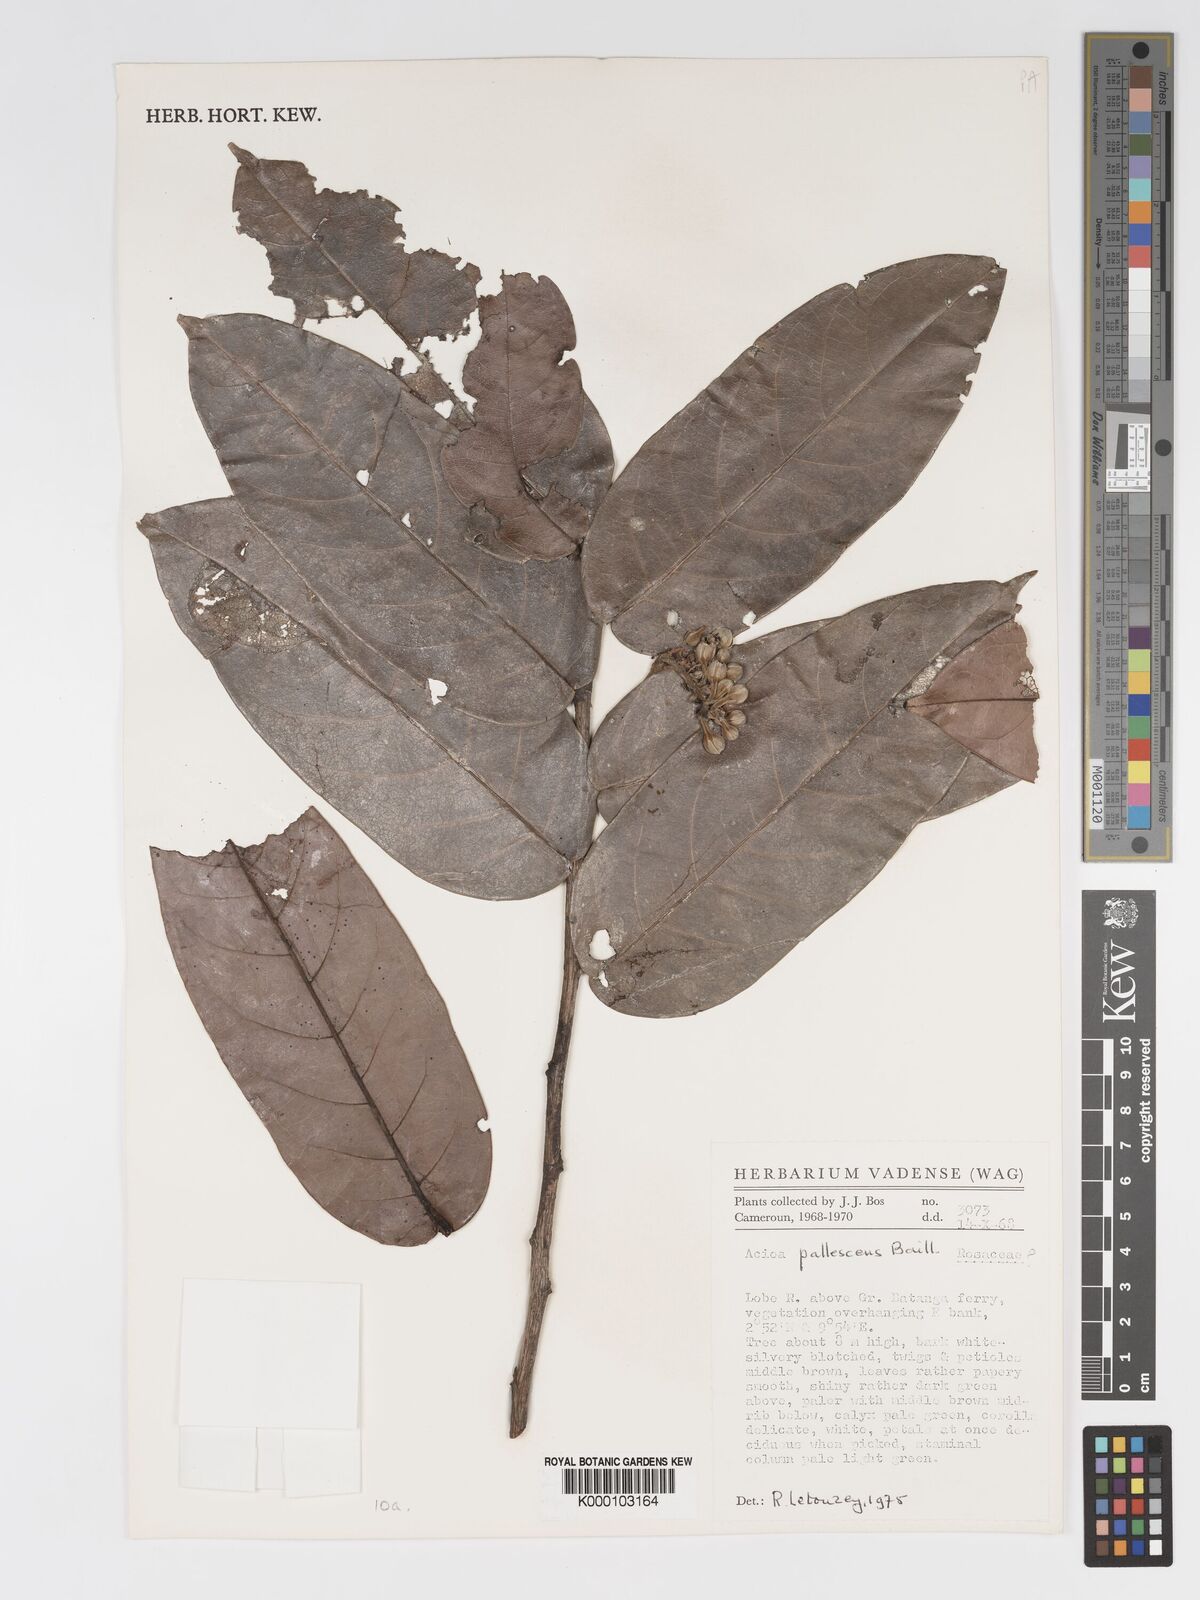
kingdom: Plantae
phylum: Tracheophyta
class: Magnoliopsida
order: Malpighiales
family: Chrysobalanaceae
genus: Dactyladenia
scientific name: Dactyladenia pallescens
